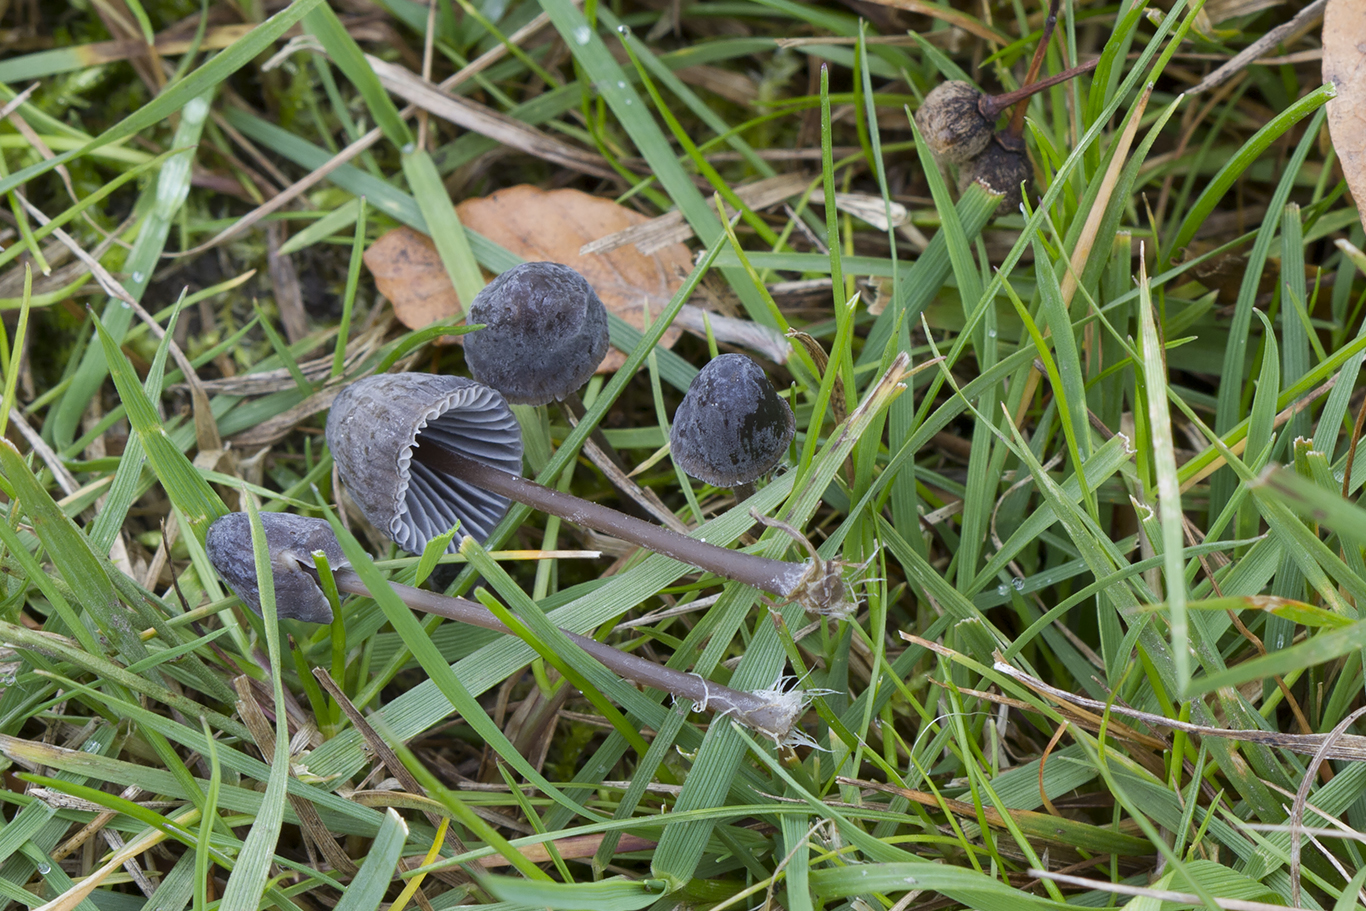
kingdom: Fungi
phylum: Basidiomycota
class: Agaricomycetes
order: Agaricales
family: Mycenaceae
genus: Mycena
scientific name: Mycena leptocephala
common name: klor-huesvamp
